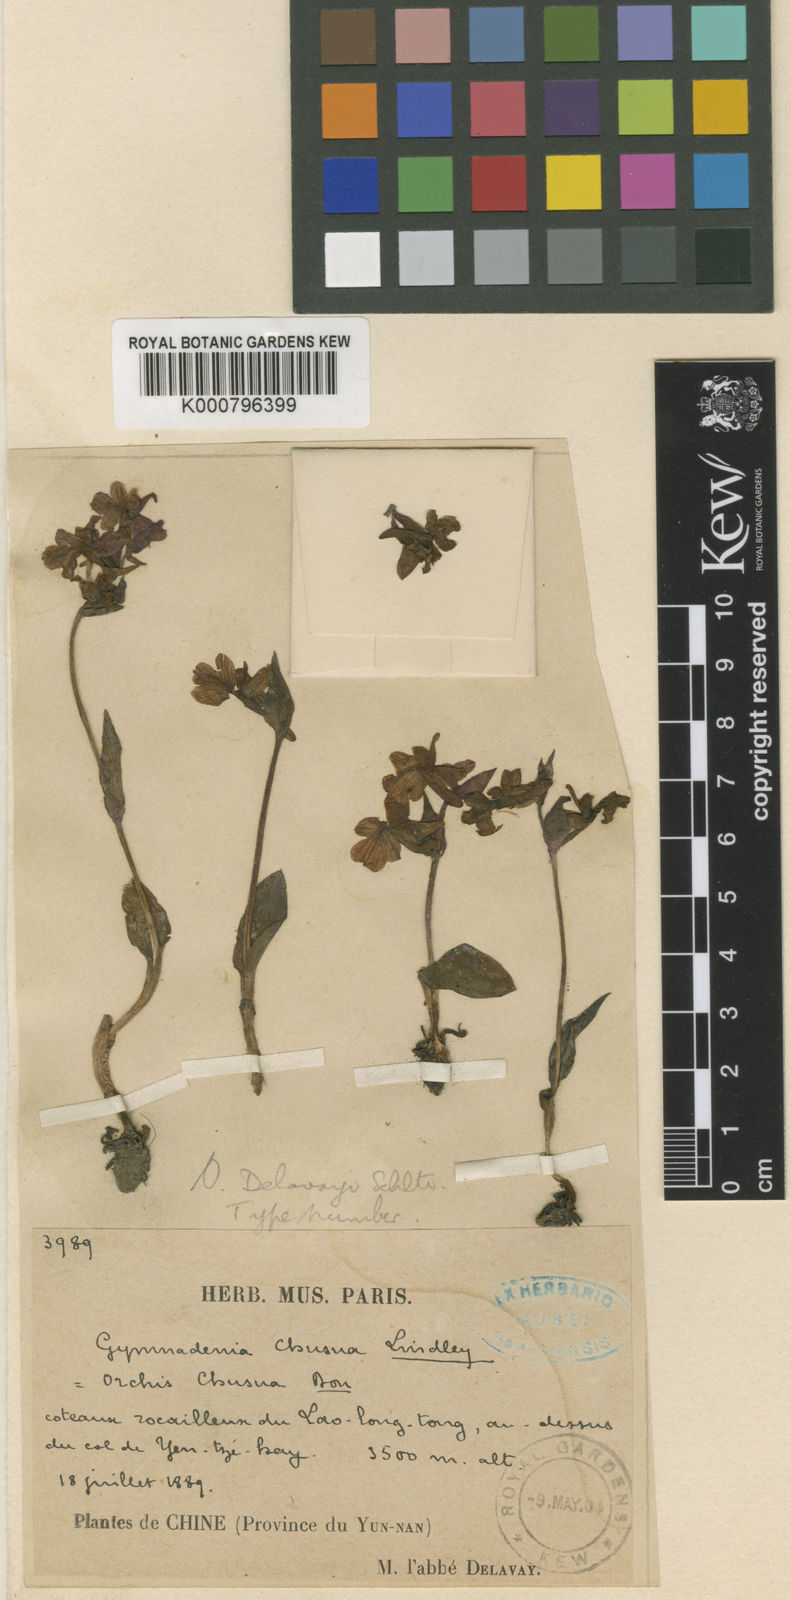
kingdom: Plantae
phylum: Tracheophyta
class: Liliopsida
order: Asparagales
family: Orchidaceae
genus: Hemipilia
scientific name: Hemipilia
